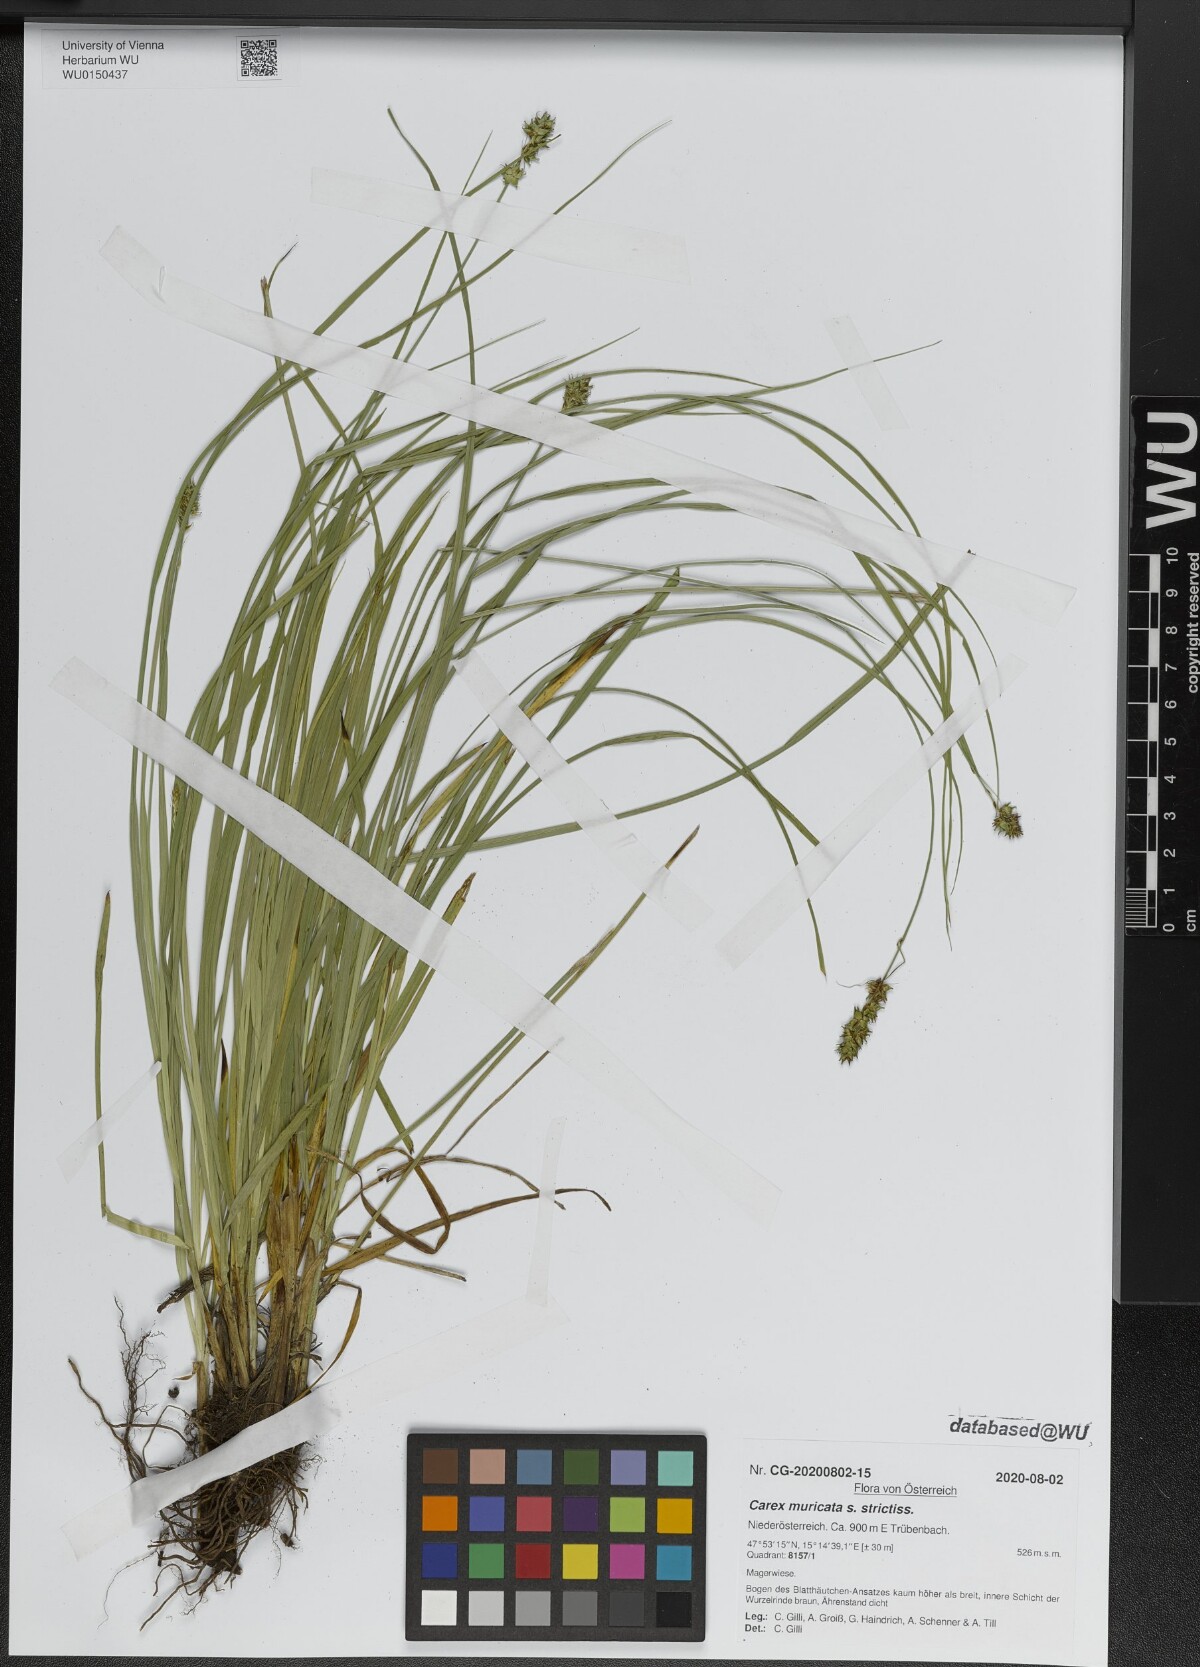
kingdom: Plantae
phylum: Tracheophyta
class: Liliopsida
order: Poales
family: Cyperaceae
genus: Carex
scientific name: Carex muricata
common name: Rough sedge
